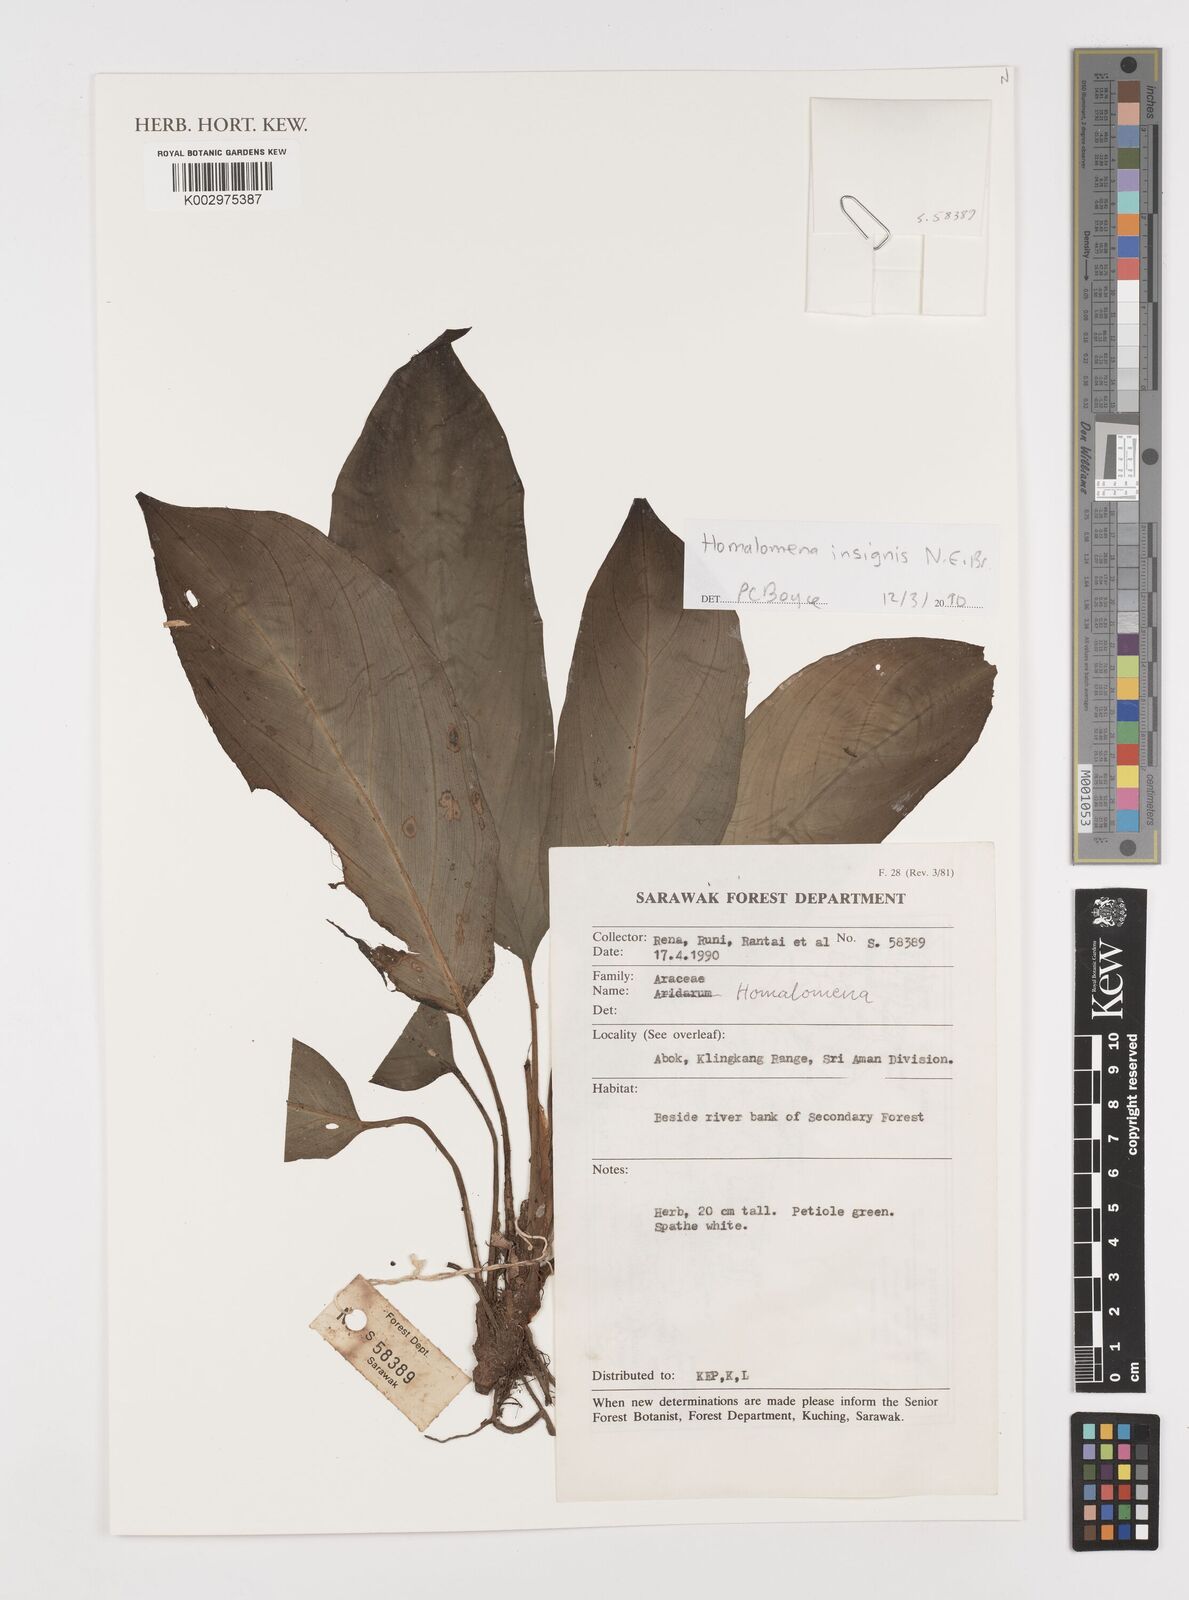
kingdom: Plantae
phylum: Tracheophyta
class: Liliopsida
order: Alismatales
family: Araceae
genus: Homalomena
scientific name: Homalomena insignis
